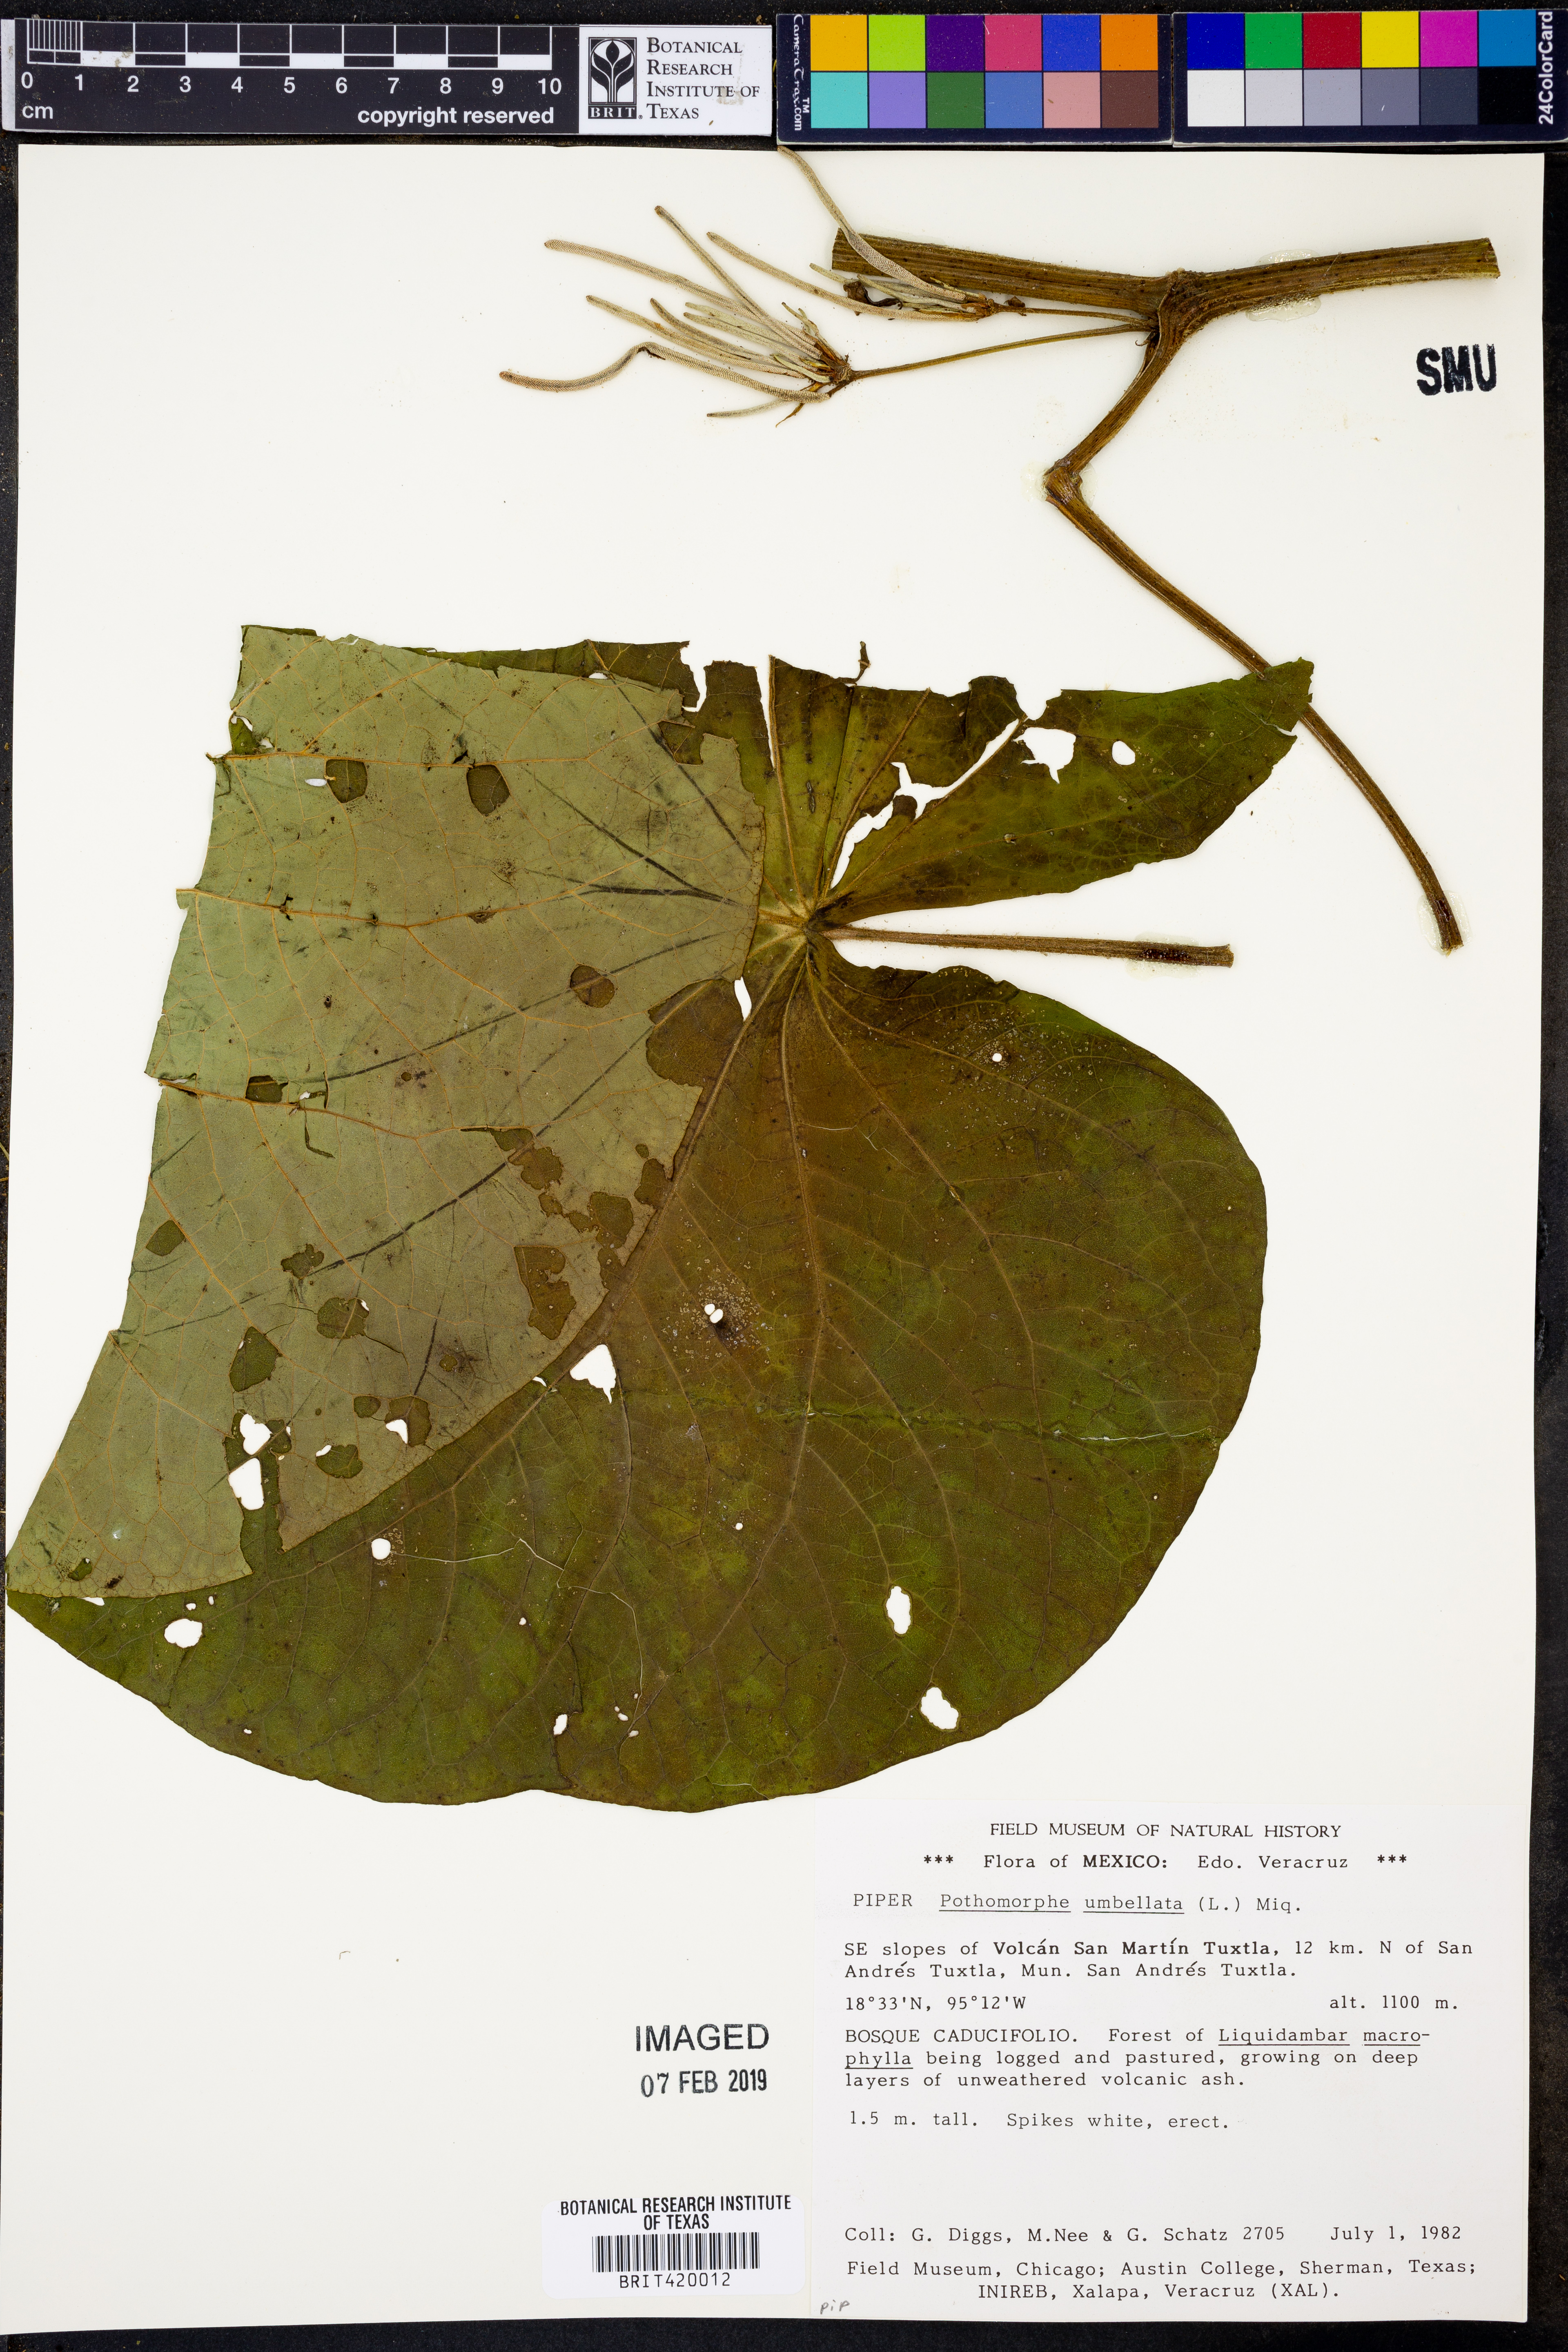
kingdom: Plantae
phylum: Tracheophyta
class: Magnoliopsida
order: Piperales
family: Piperaceae
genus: Piper
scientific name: Piper umbellatum
